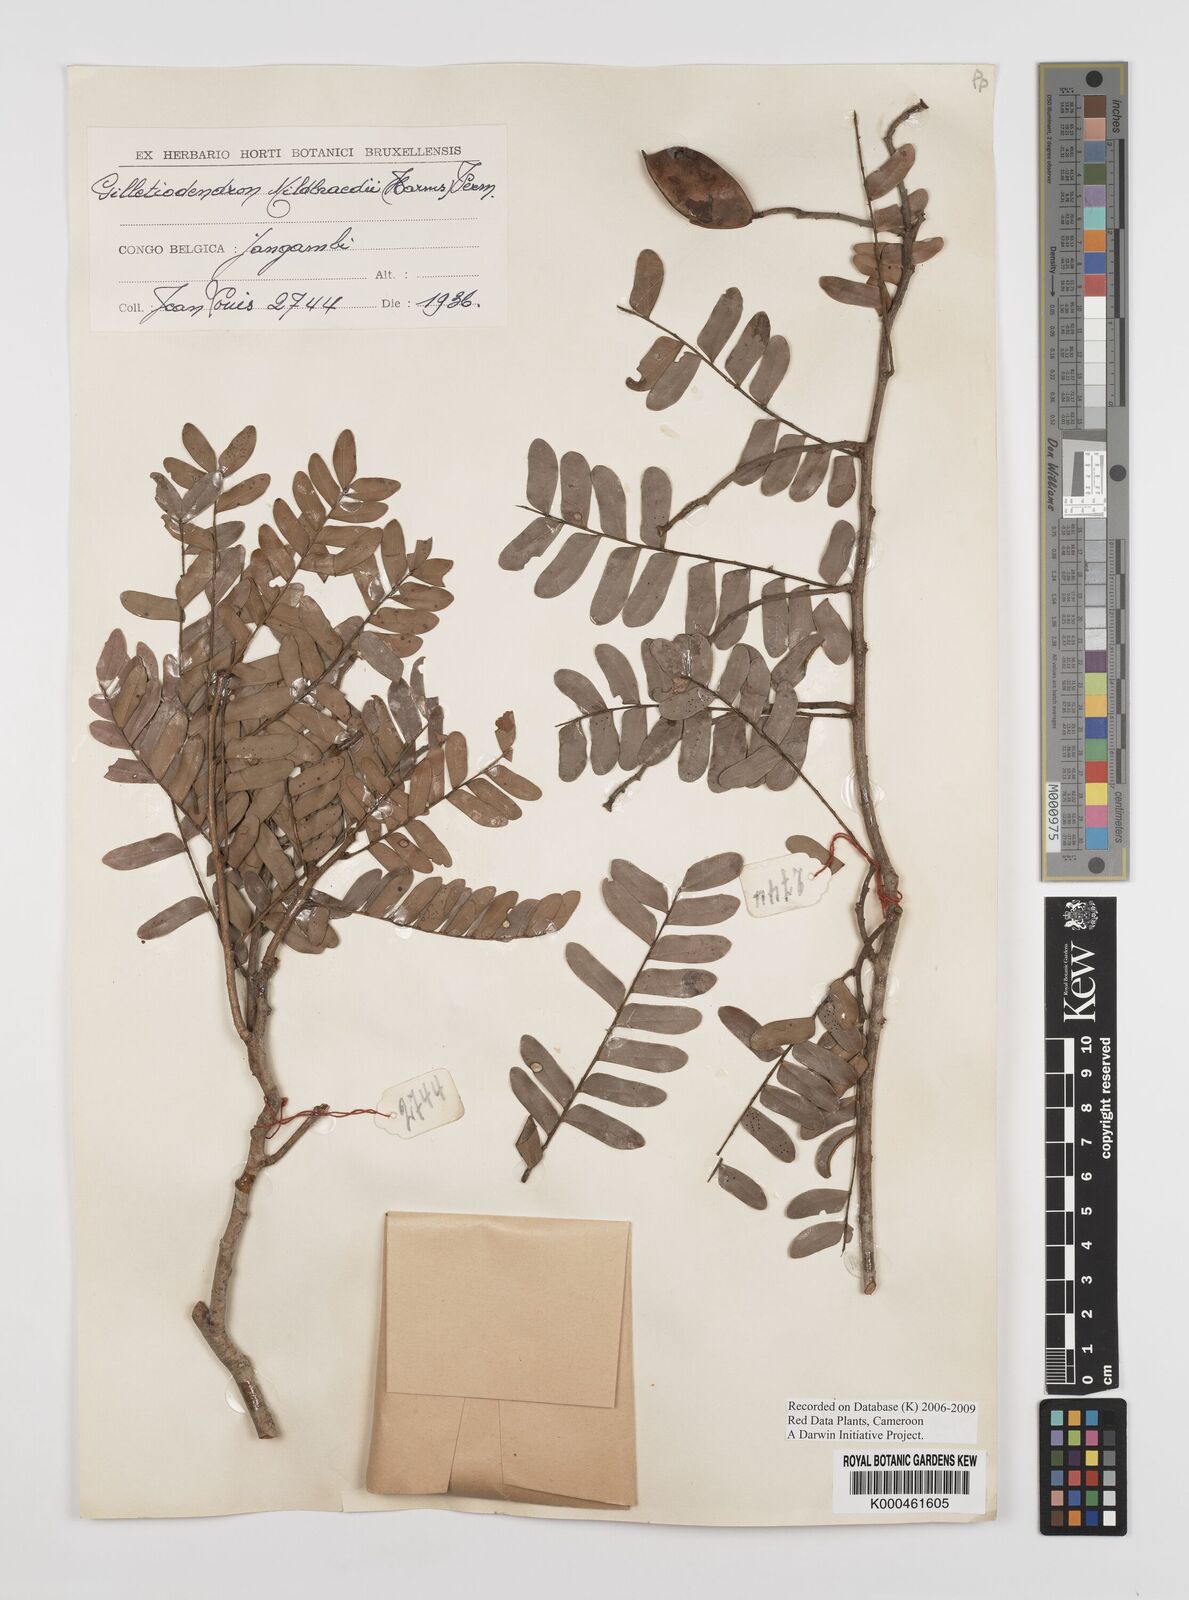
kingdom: Plantae
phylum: Tracheophyta
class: Magnoliopsida
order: Fabales
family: Fabaceae
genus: Gilletiodendron
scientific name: Gilletiodendron mildbraedii
